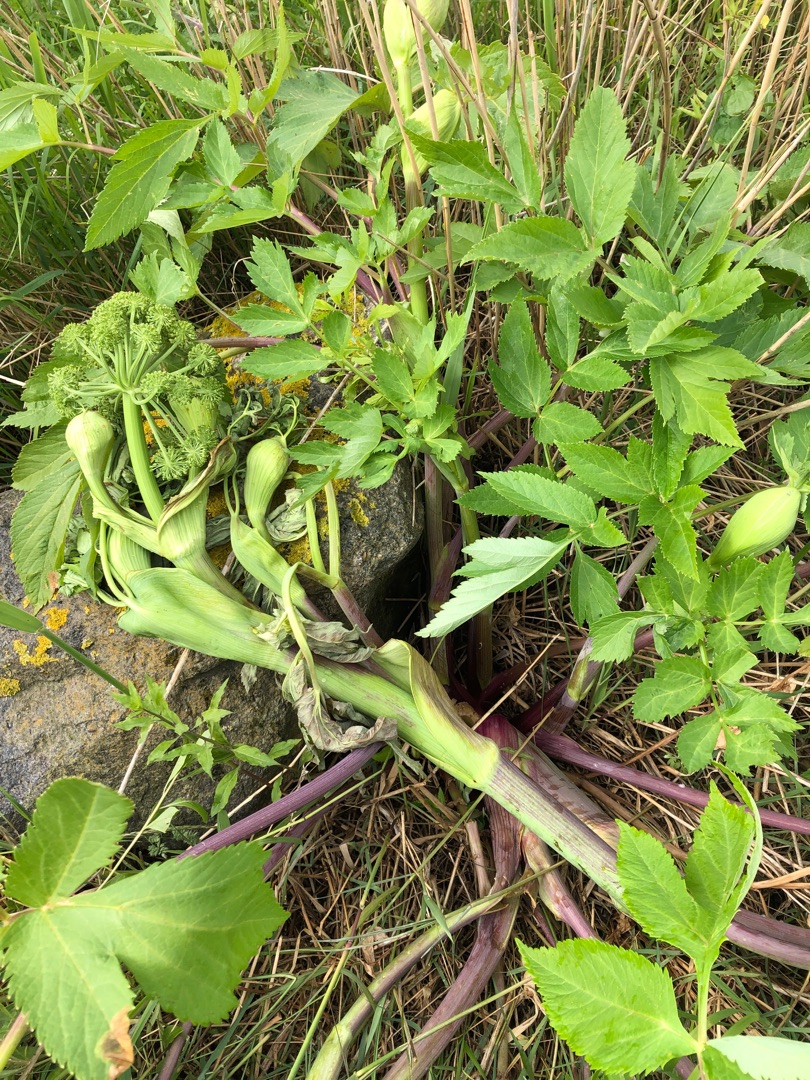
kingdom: Plantae
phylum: Tracheophyta
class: Magnoliopsida
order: Apiales
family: Apiaceae
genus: Angelica
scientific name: Angelica archangelica
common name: Strand-kvan
